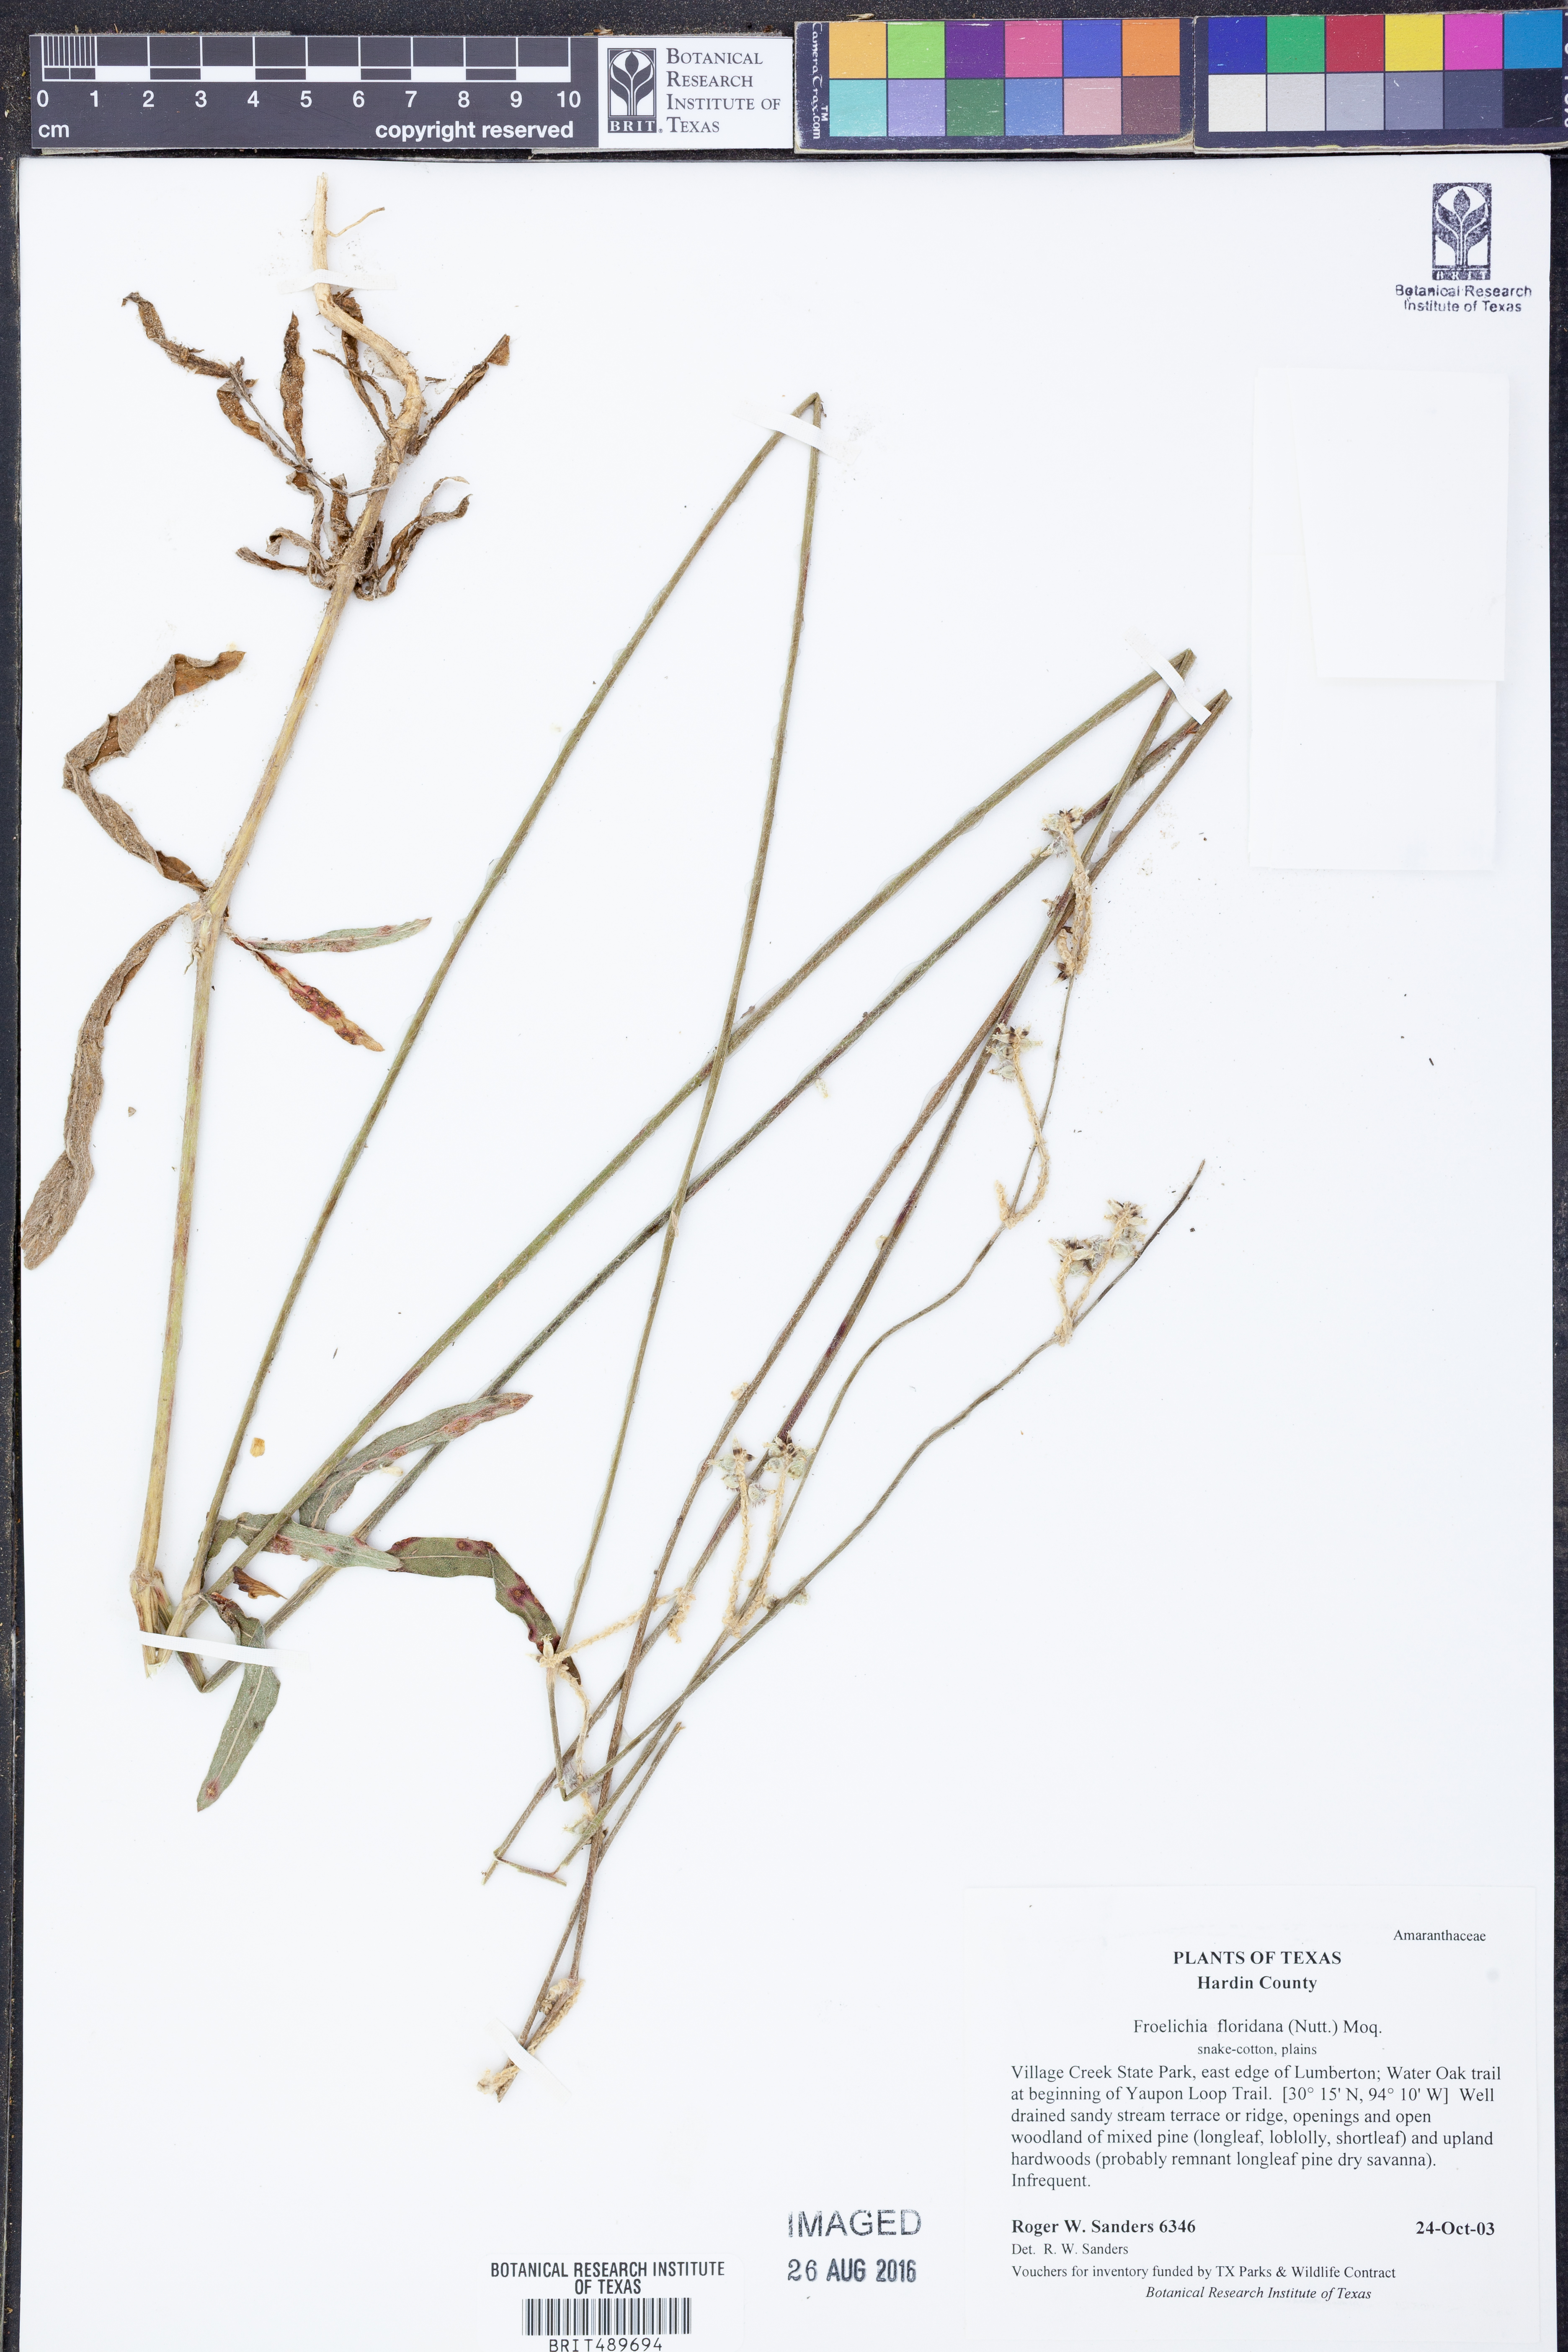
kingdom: Plantae
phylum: Tracheophyta
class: Magnoliopsida
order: Caryophyllales
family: Amaranthaceae
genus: Froelichia
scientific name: Froelichia floridana
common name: Florida snake-cotton
